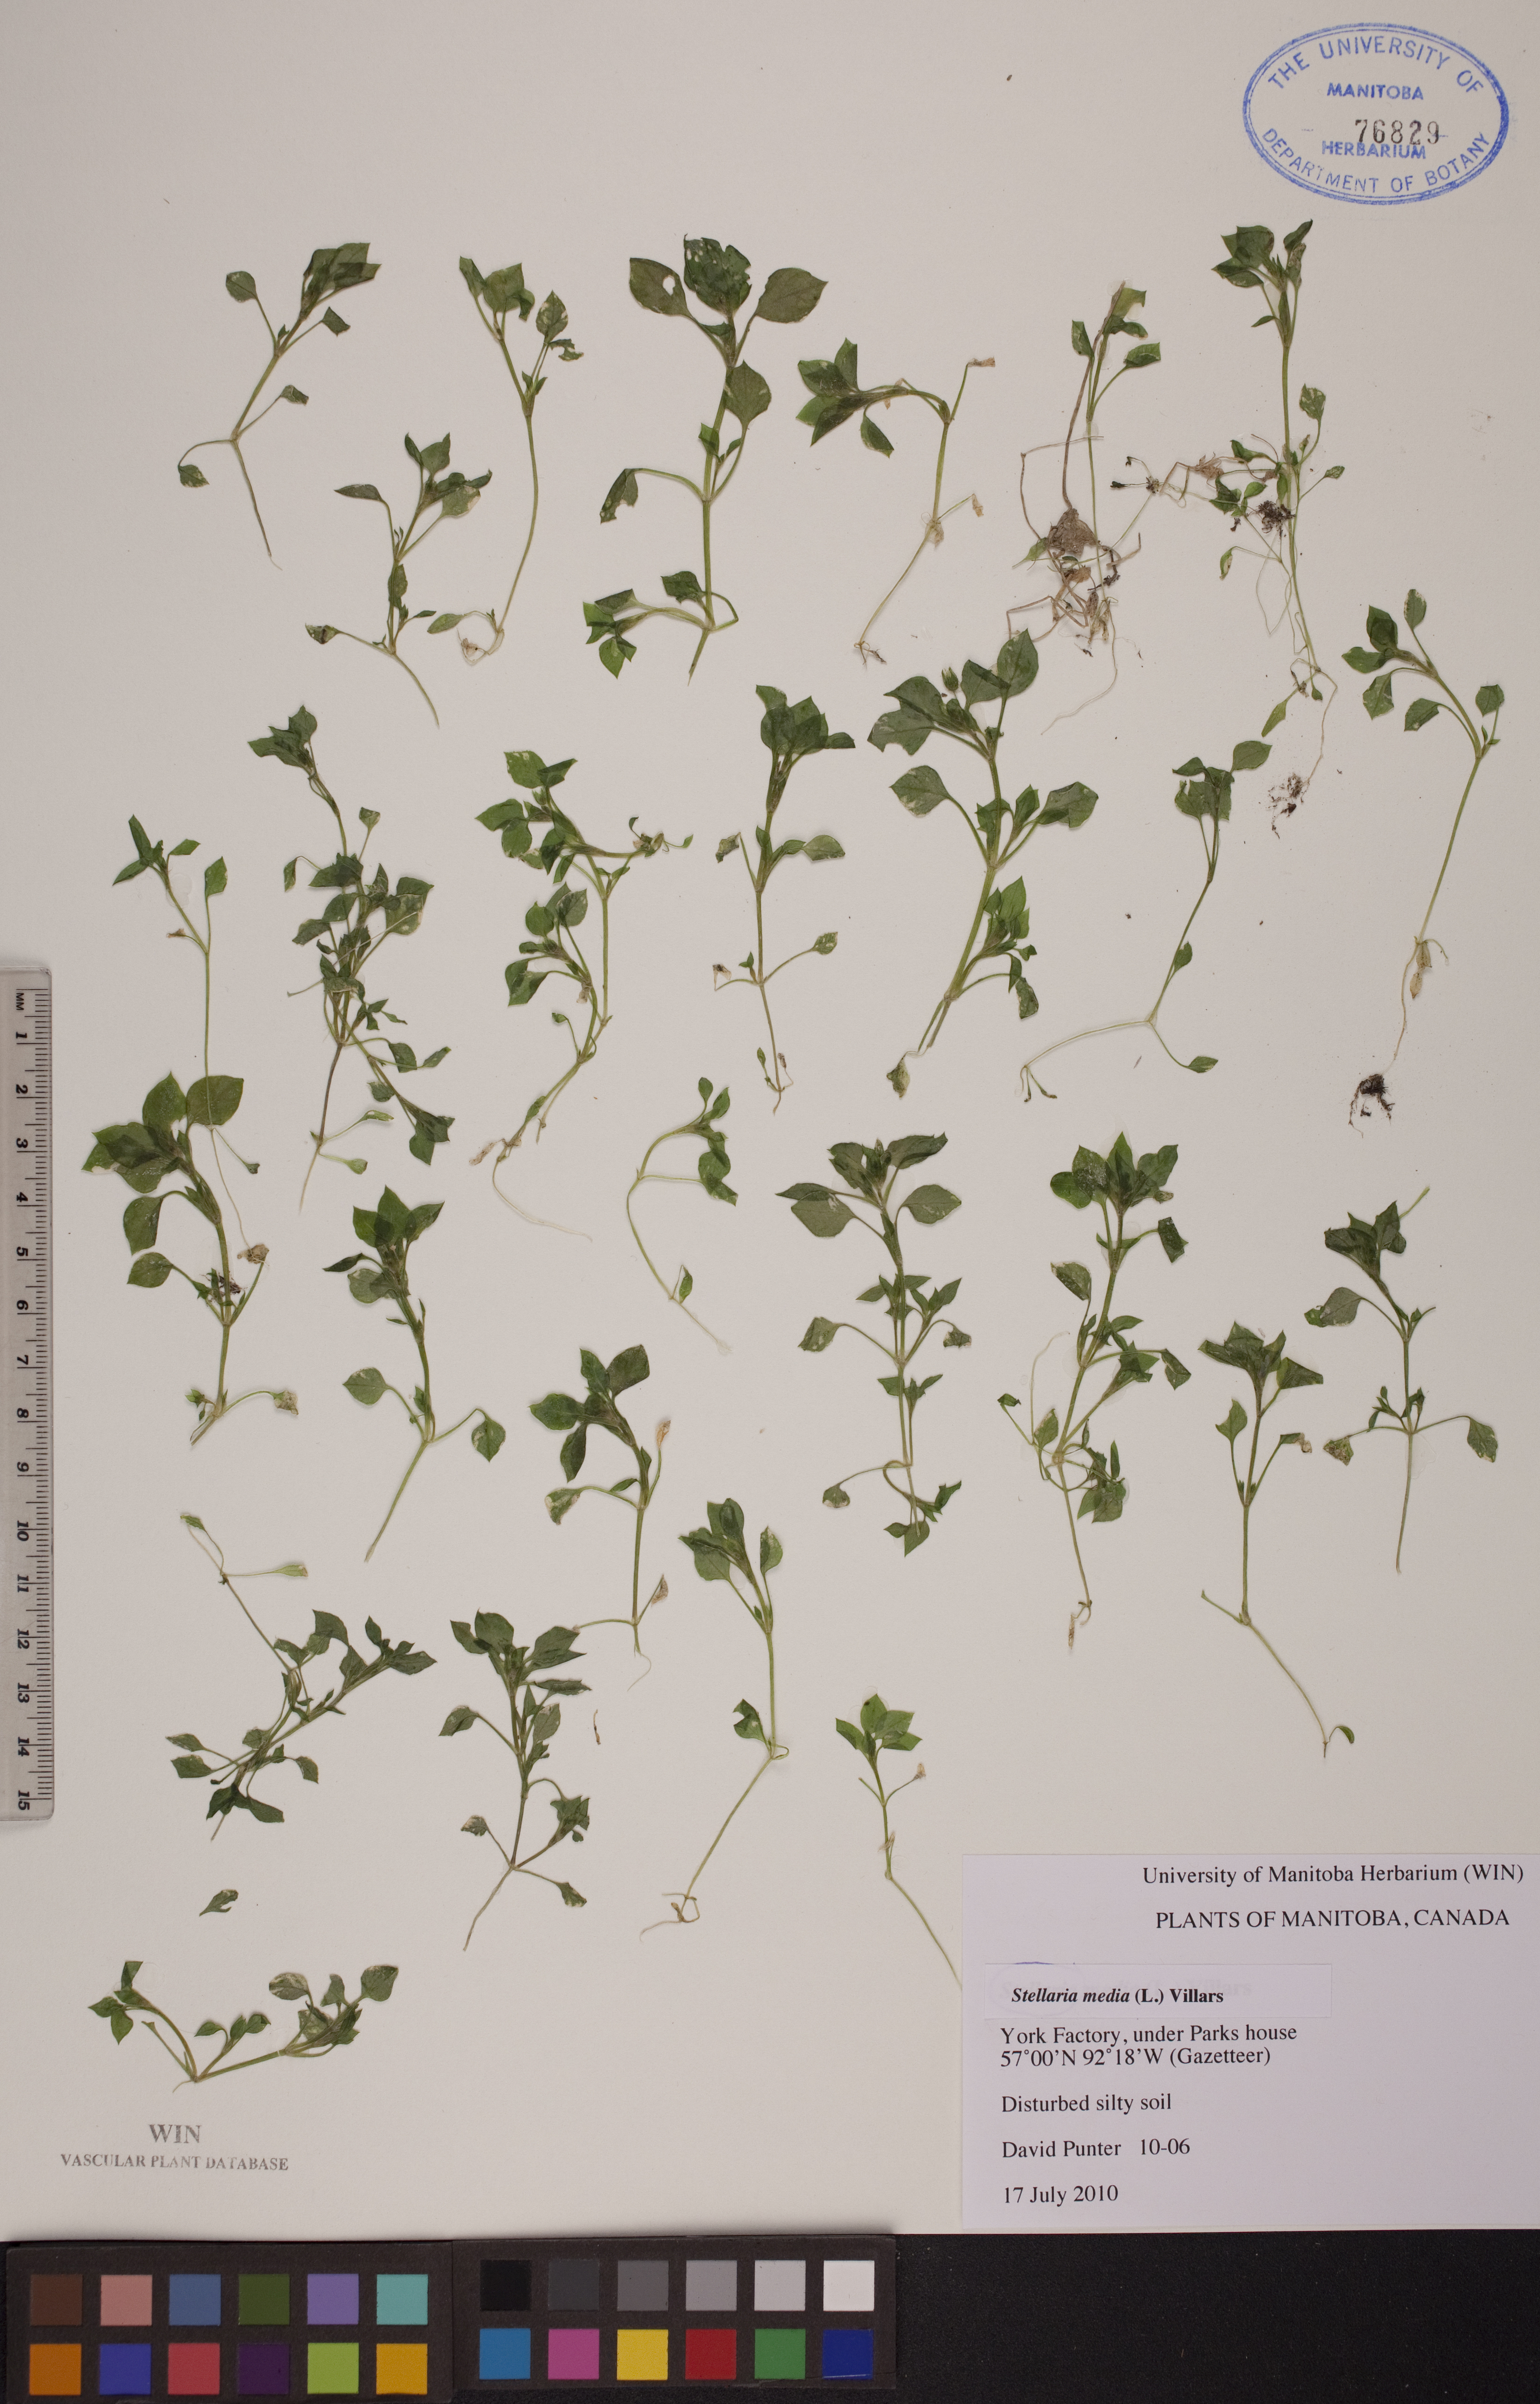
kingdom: Plantae
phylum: Tracheophyta
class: Magnoliopsida
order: Caryophyllales
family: Caryophyllaceae
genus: Stellaria
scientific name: Stellaria media
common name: Common chickweed
